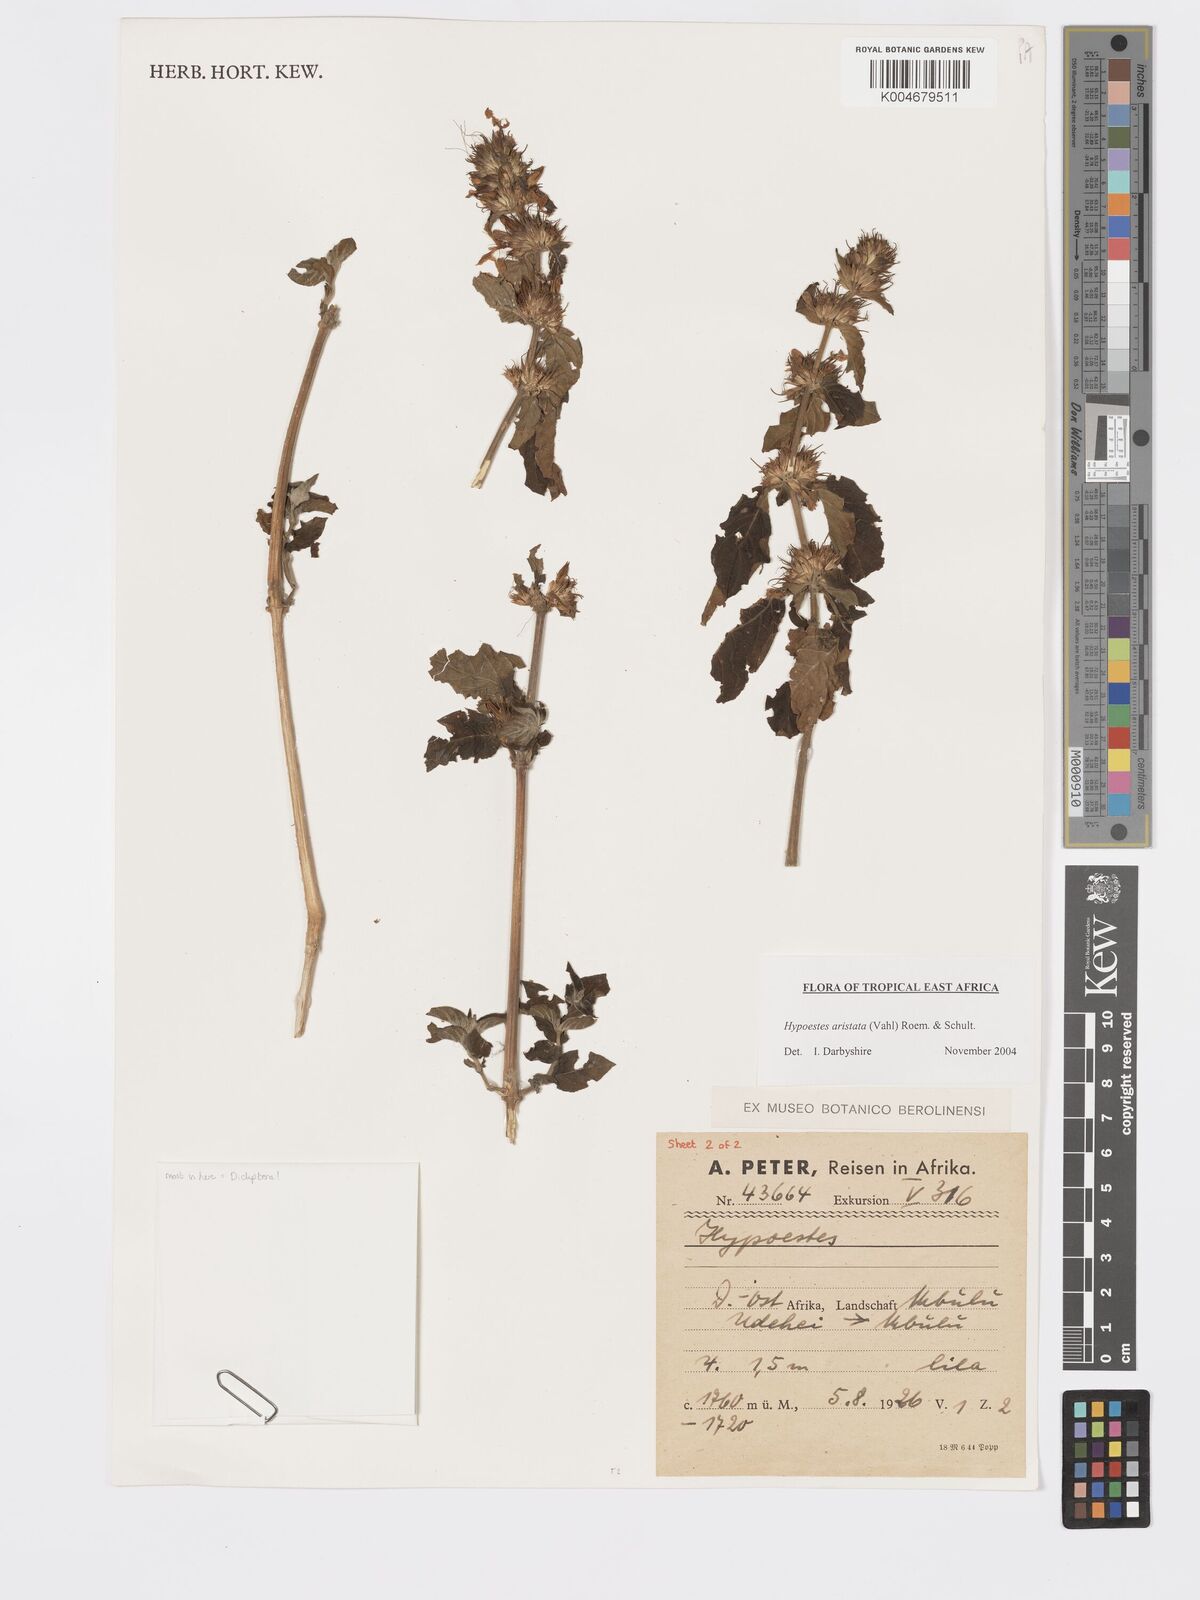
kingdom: Plantae
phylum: Tracheophyta
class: Magnoliopsida
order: Lamiales
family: Acanthaceae
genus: Hypoestes
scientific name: Hypoestes aristata
